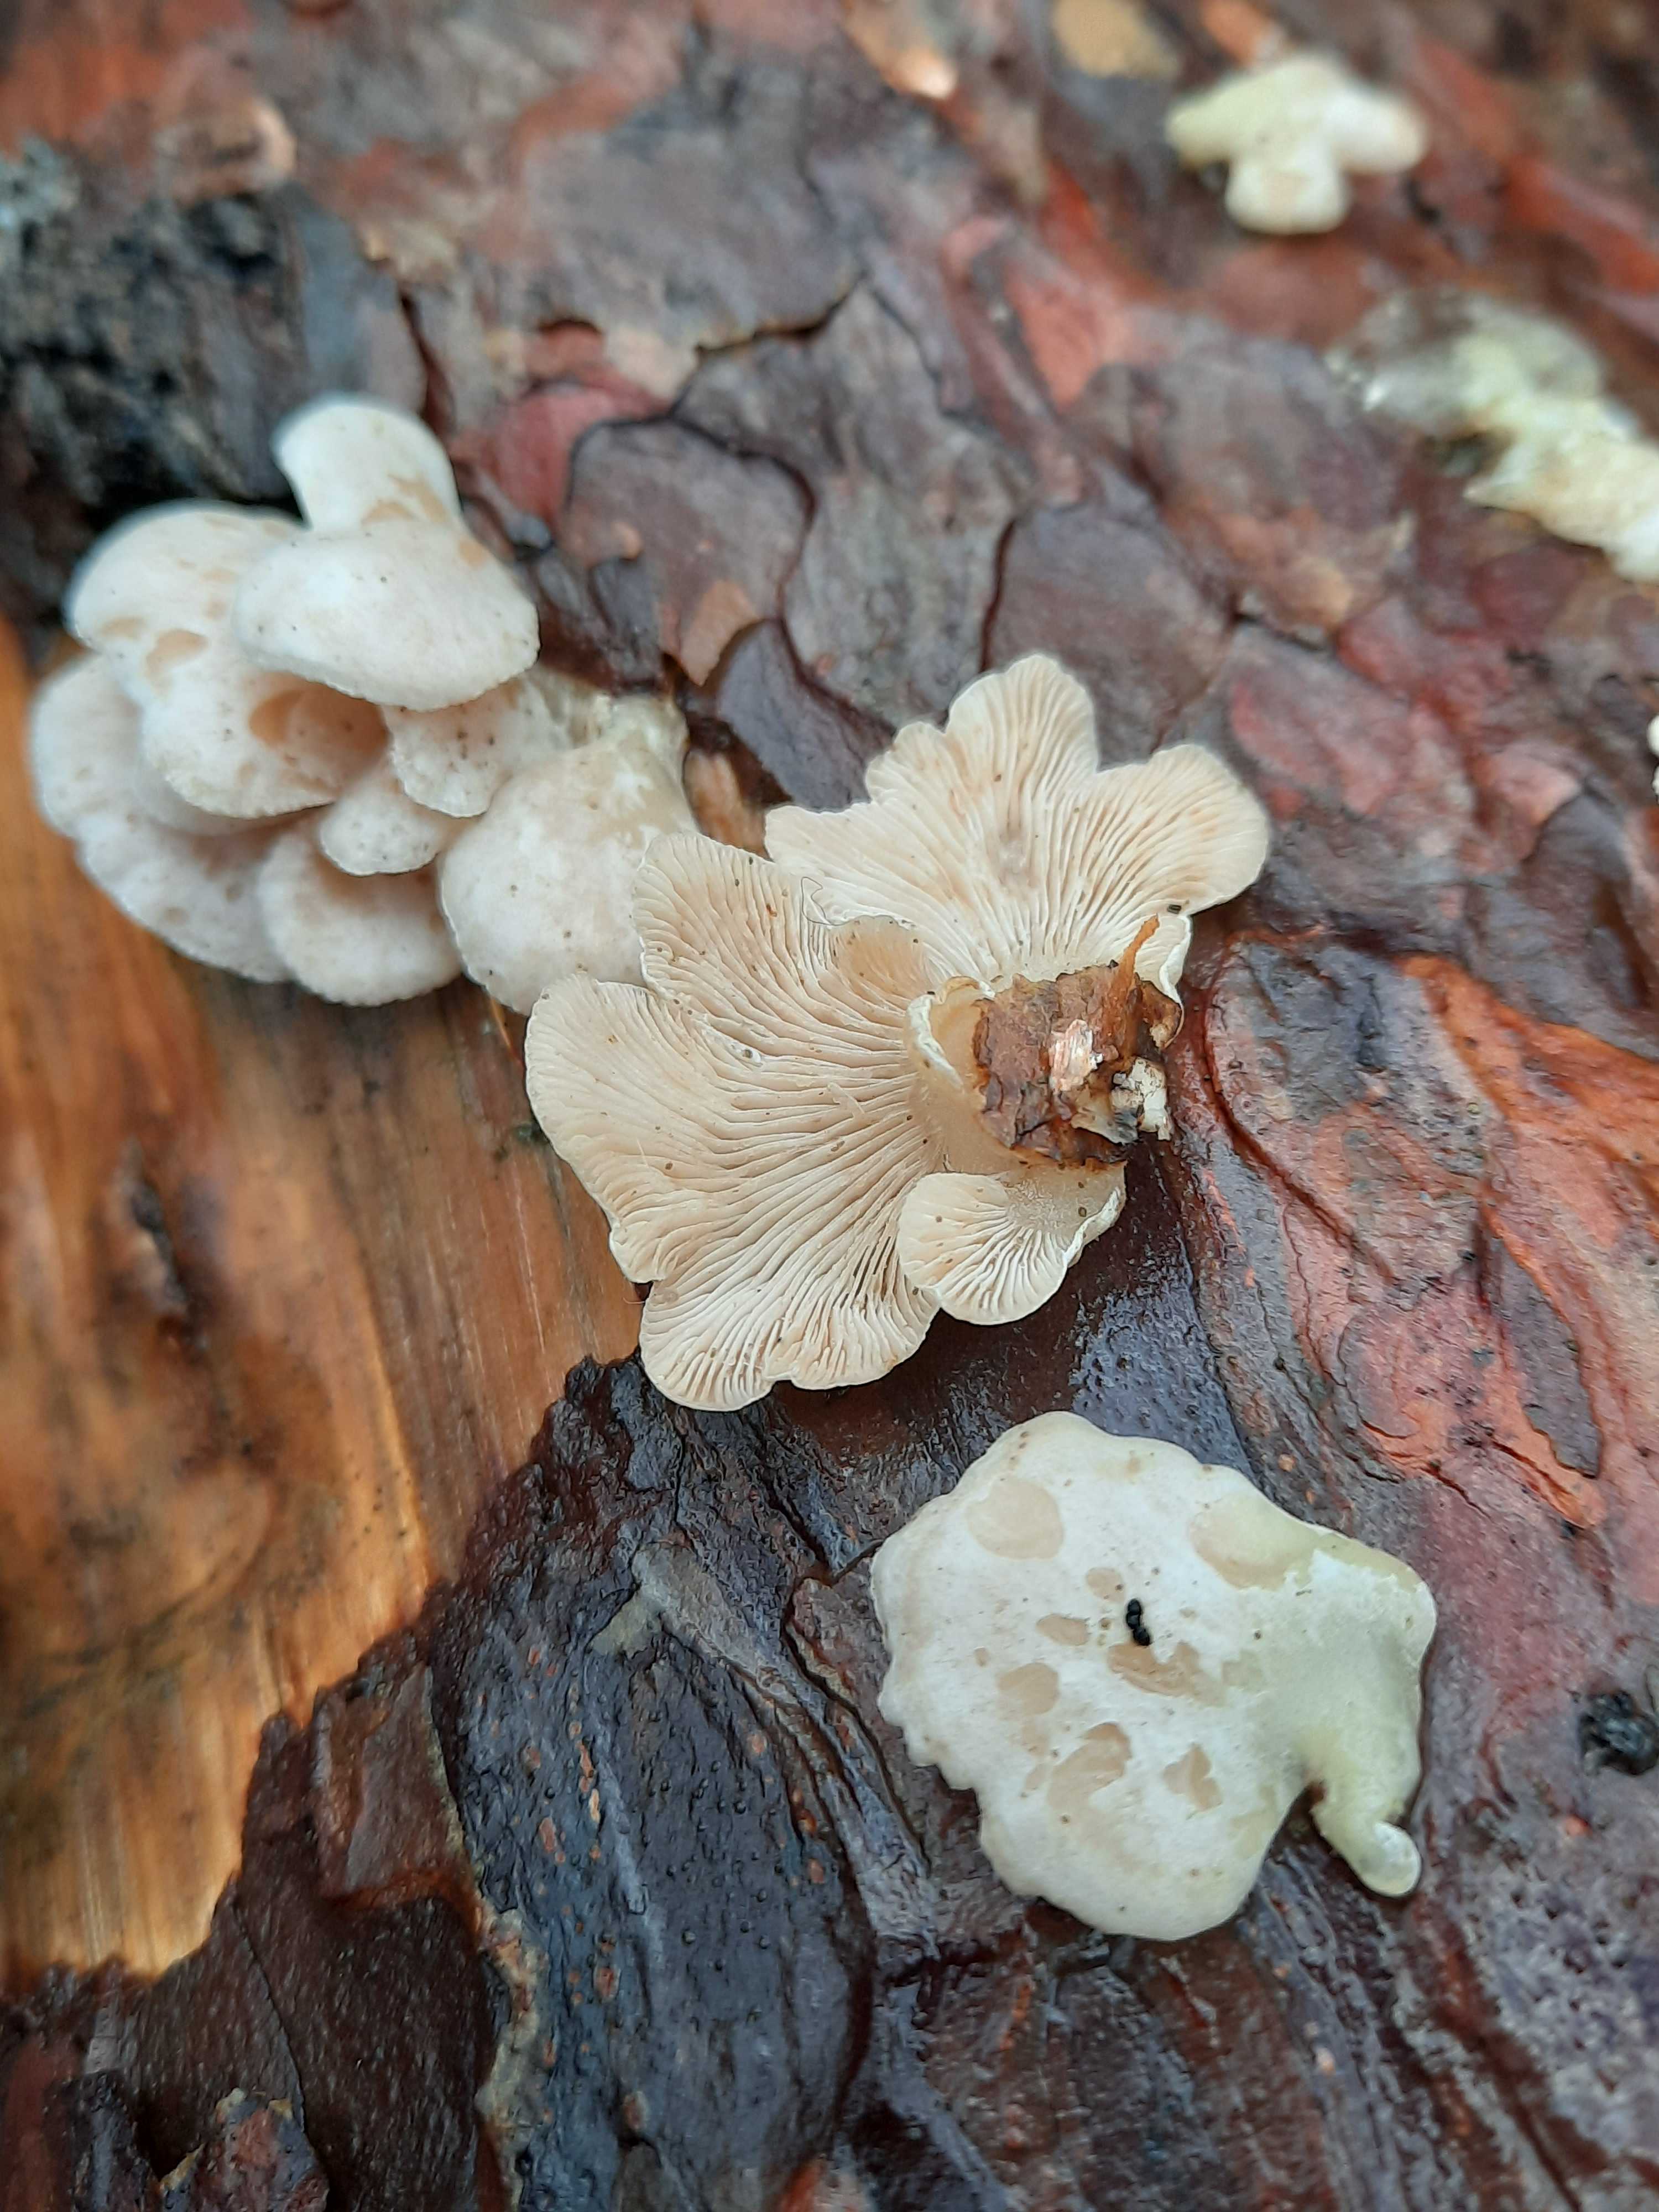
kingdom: Fungi
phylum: Basidiomycota
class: Agaricomycetes
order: Agaricales
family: Mycenaceae
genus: Panellus
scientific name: Panellus mitis
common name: mild epaulethat
